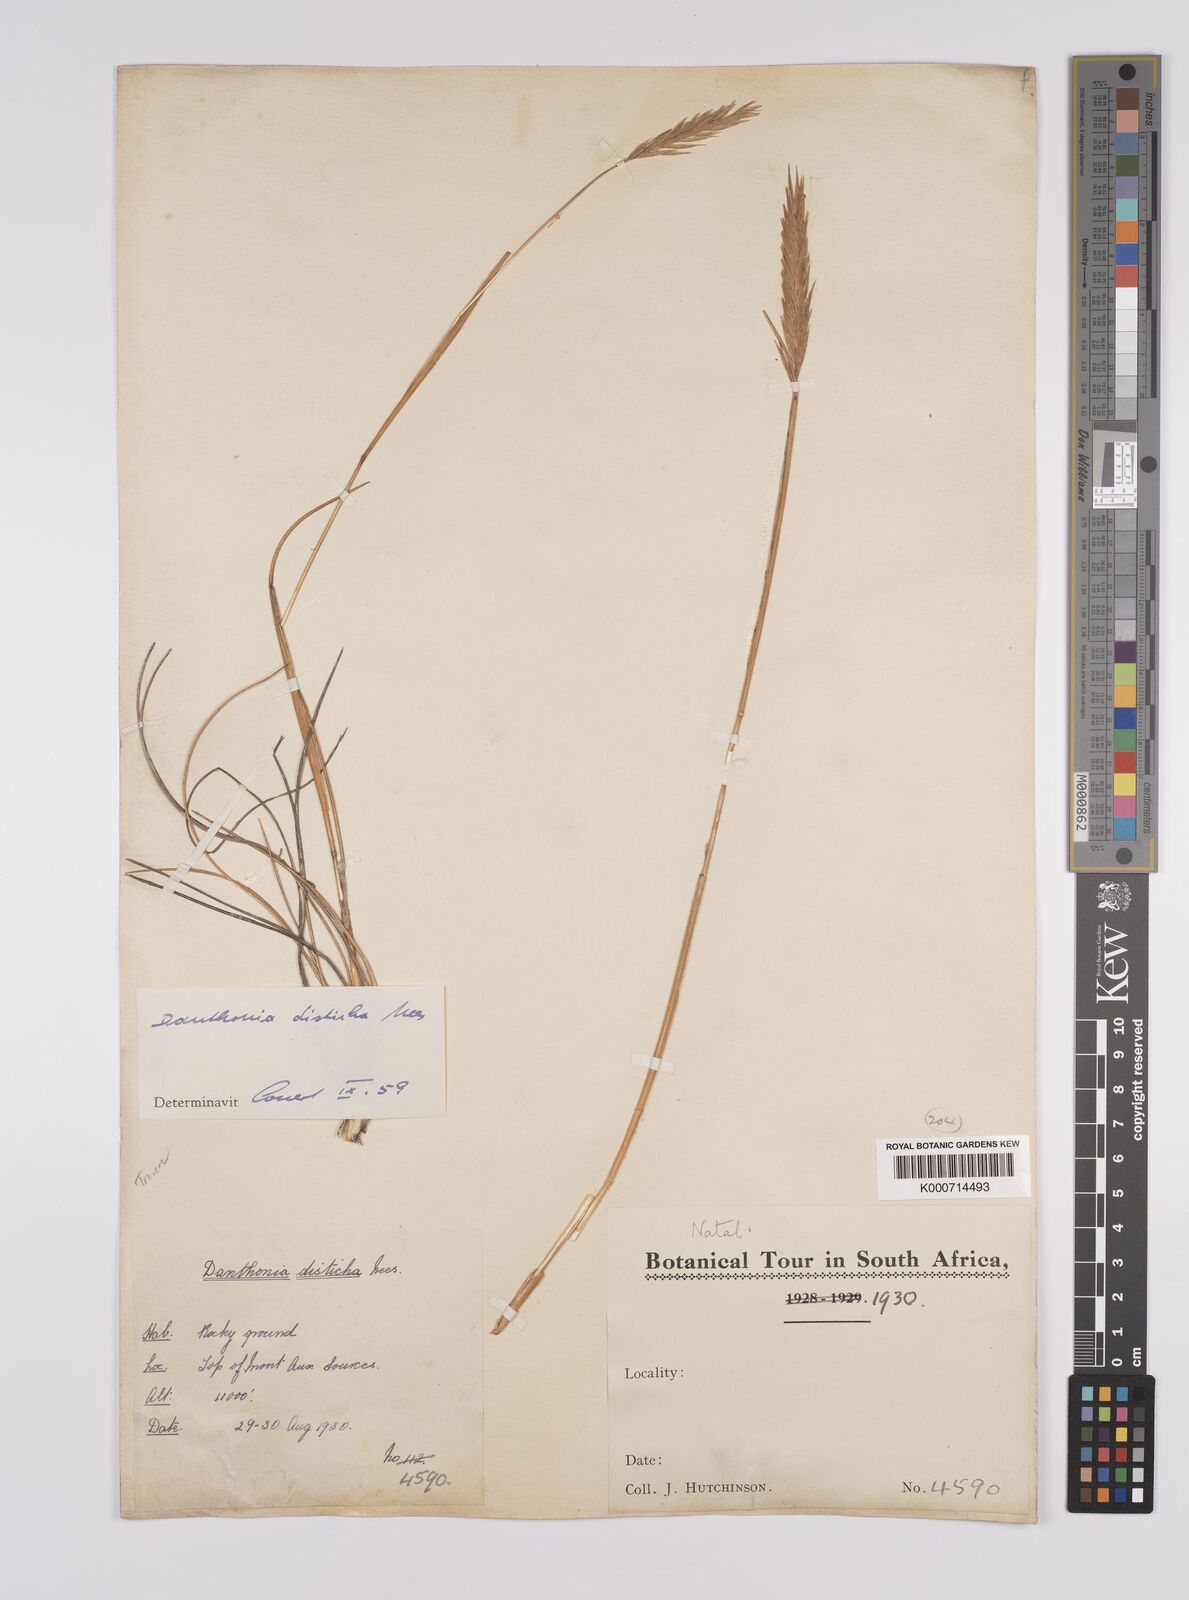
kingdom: Plantae
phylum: Tracheophyta
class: Liliopsida
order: Poales
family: Poaceae
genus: Tenaxia
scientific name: Tenaxia disticha
